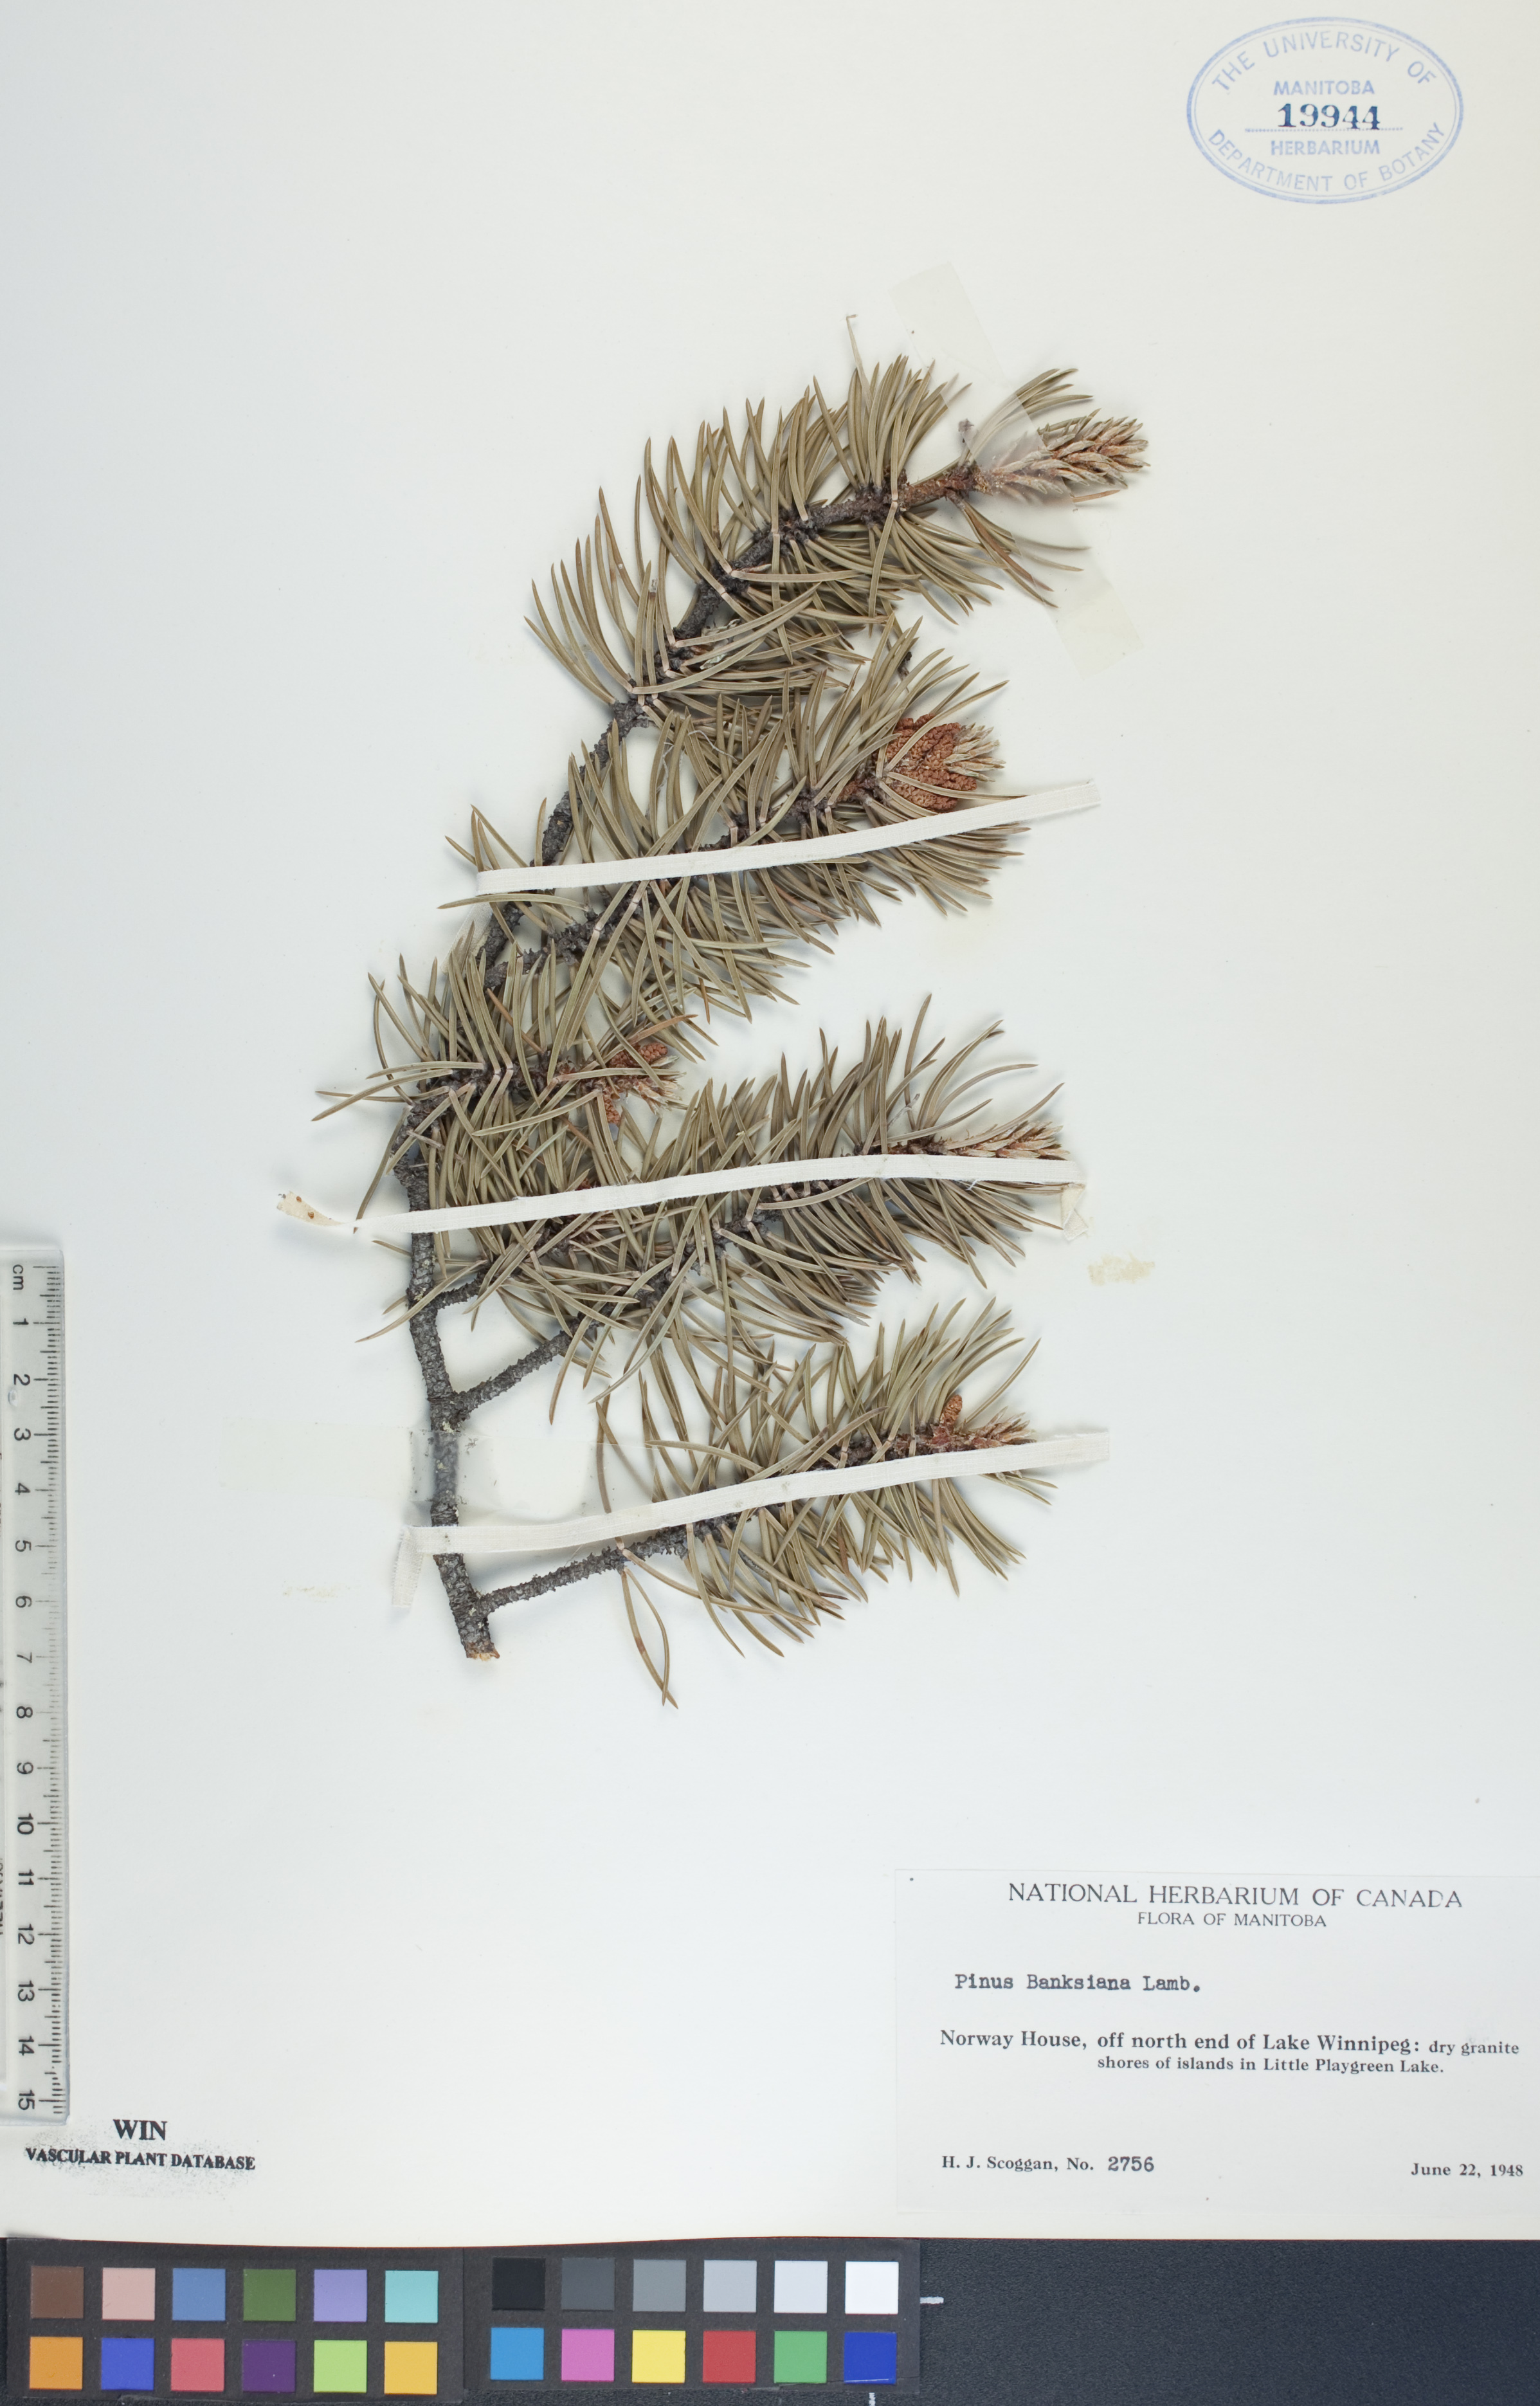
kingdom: Plantae
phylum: Tracheophyta
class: Pinopsida
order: Pinales
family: Pinaceae
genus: Pinus
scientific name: Pinus banksiana
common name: Jack pine
